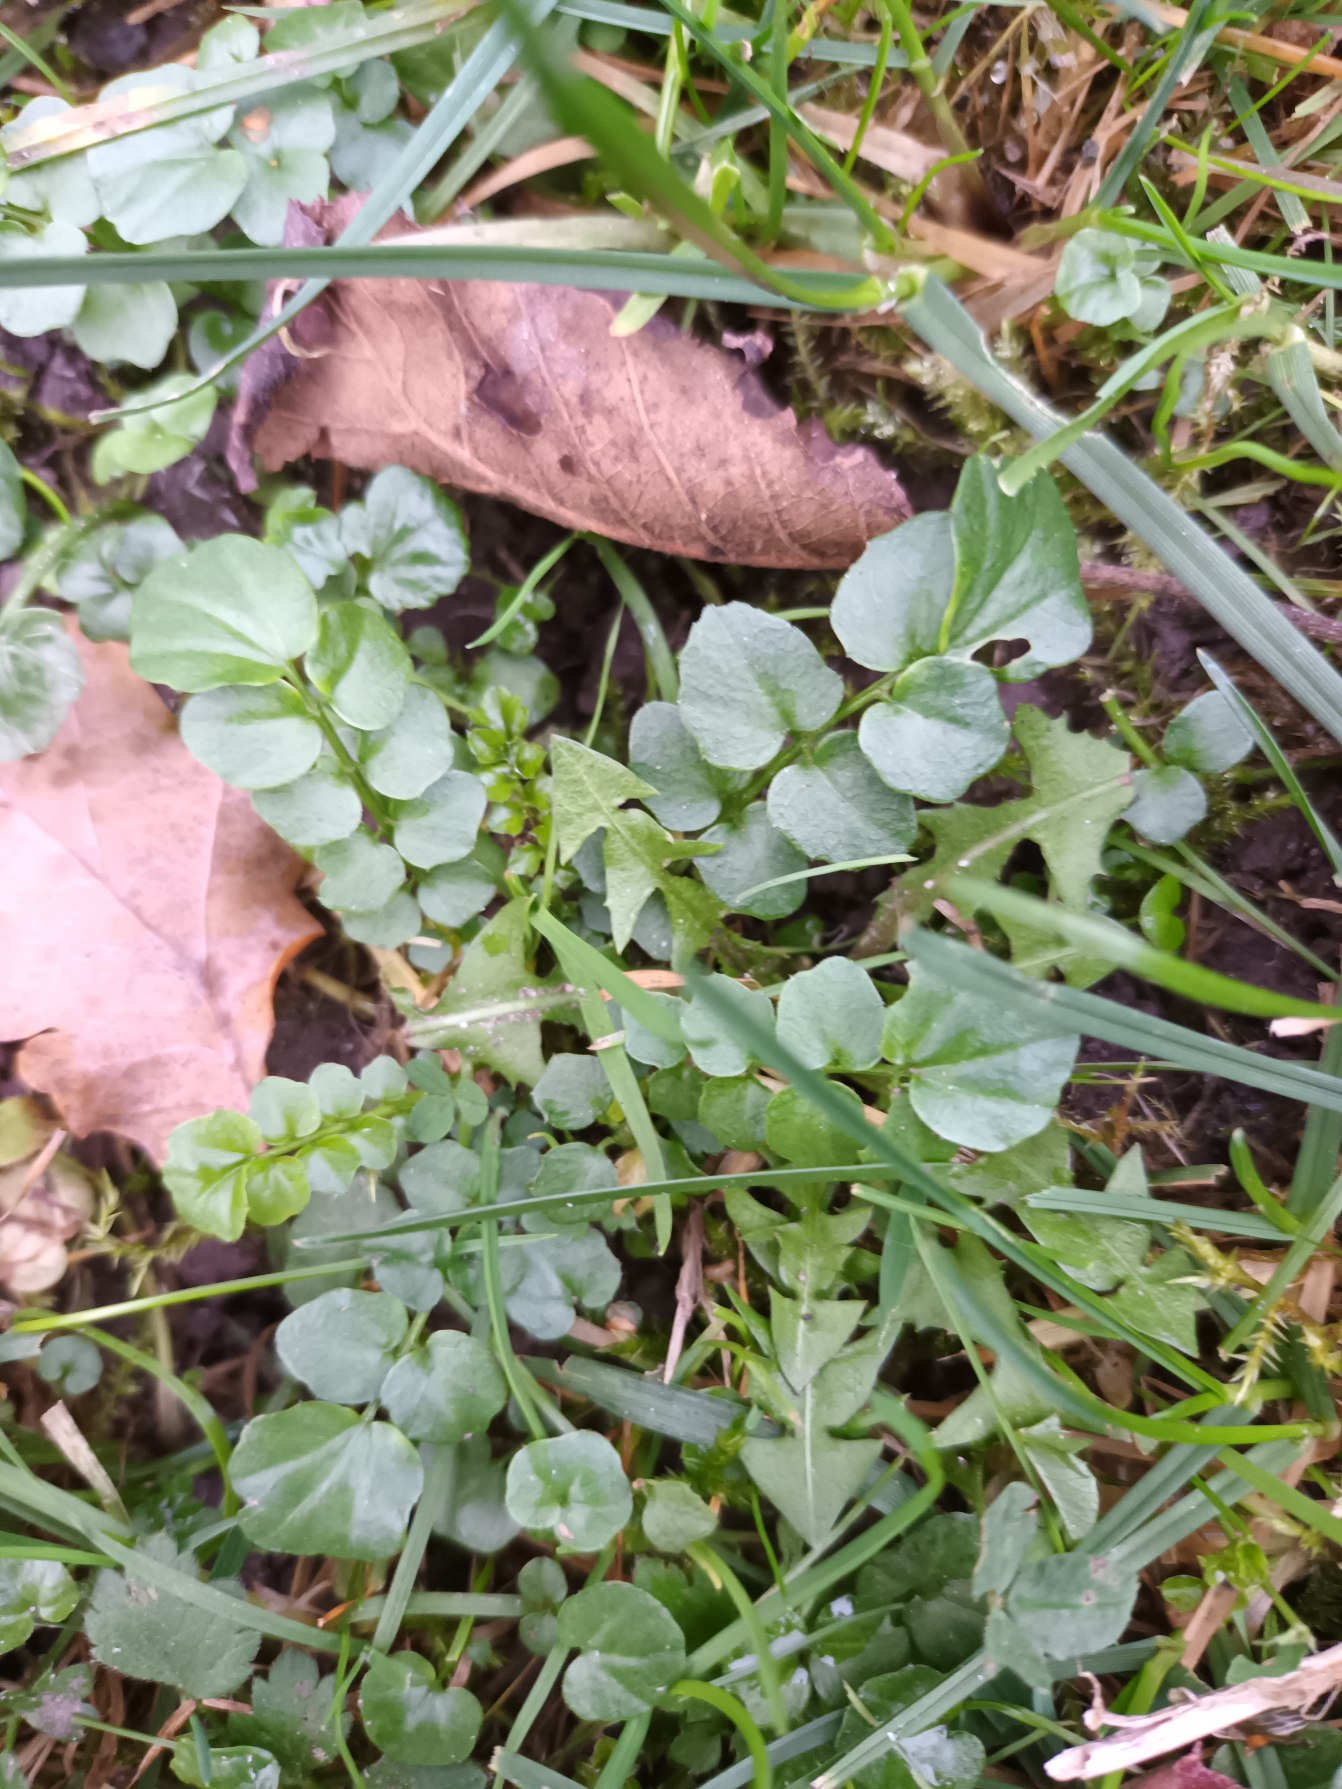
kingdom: Plantae
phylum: Tracheophyta
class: Magnoliopsida
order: Brassicales
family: Brassicaceae
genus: Cardamine
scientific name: Cardamine hirsuta
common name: Roset-springklap
